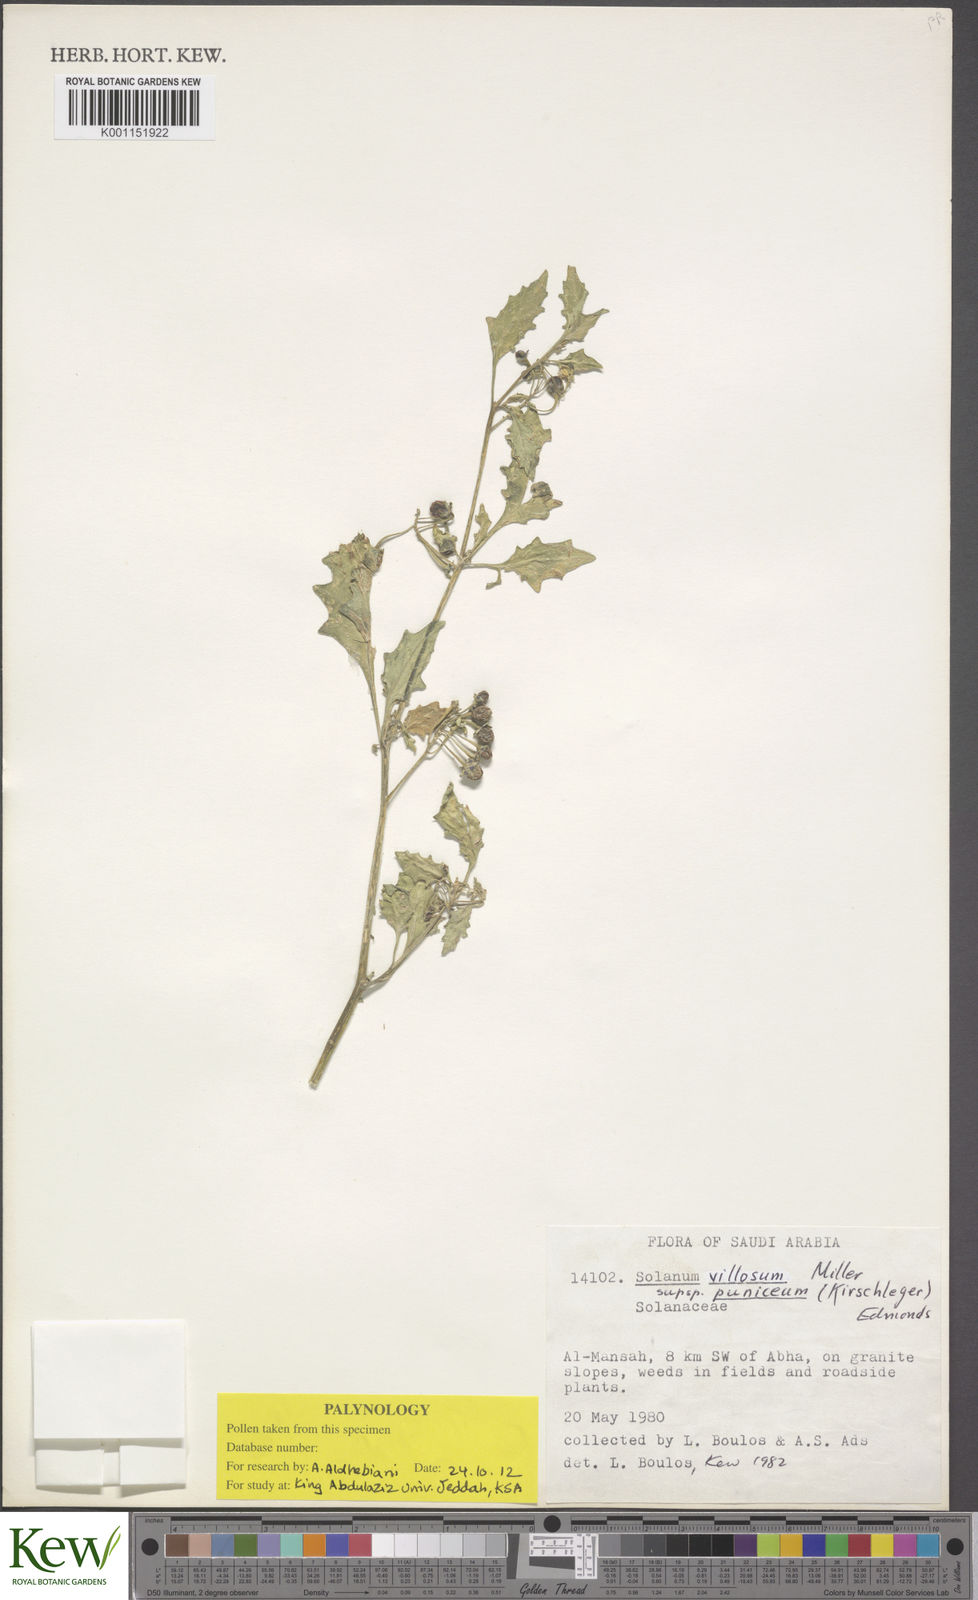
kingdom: Plantae
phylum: Tracheophyta
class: Magnoliopsida
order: Solanales
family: Solanaceae
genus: Solanum
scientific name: Solanum villosum
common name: Red nightshade
